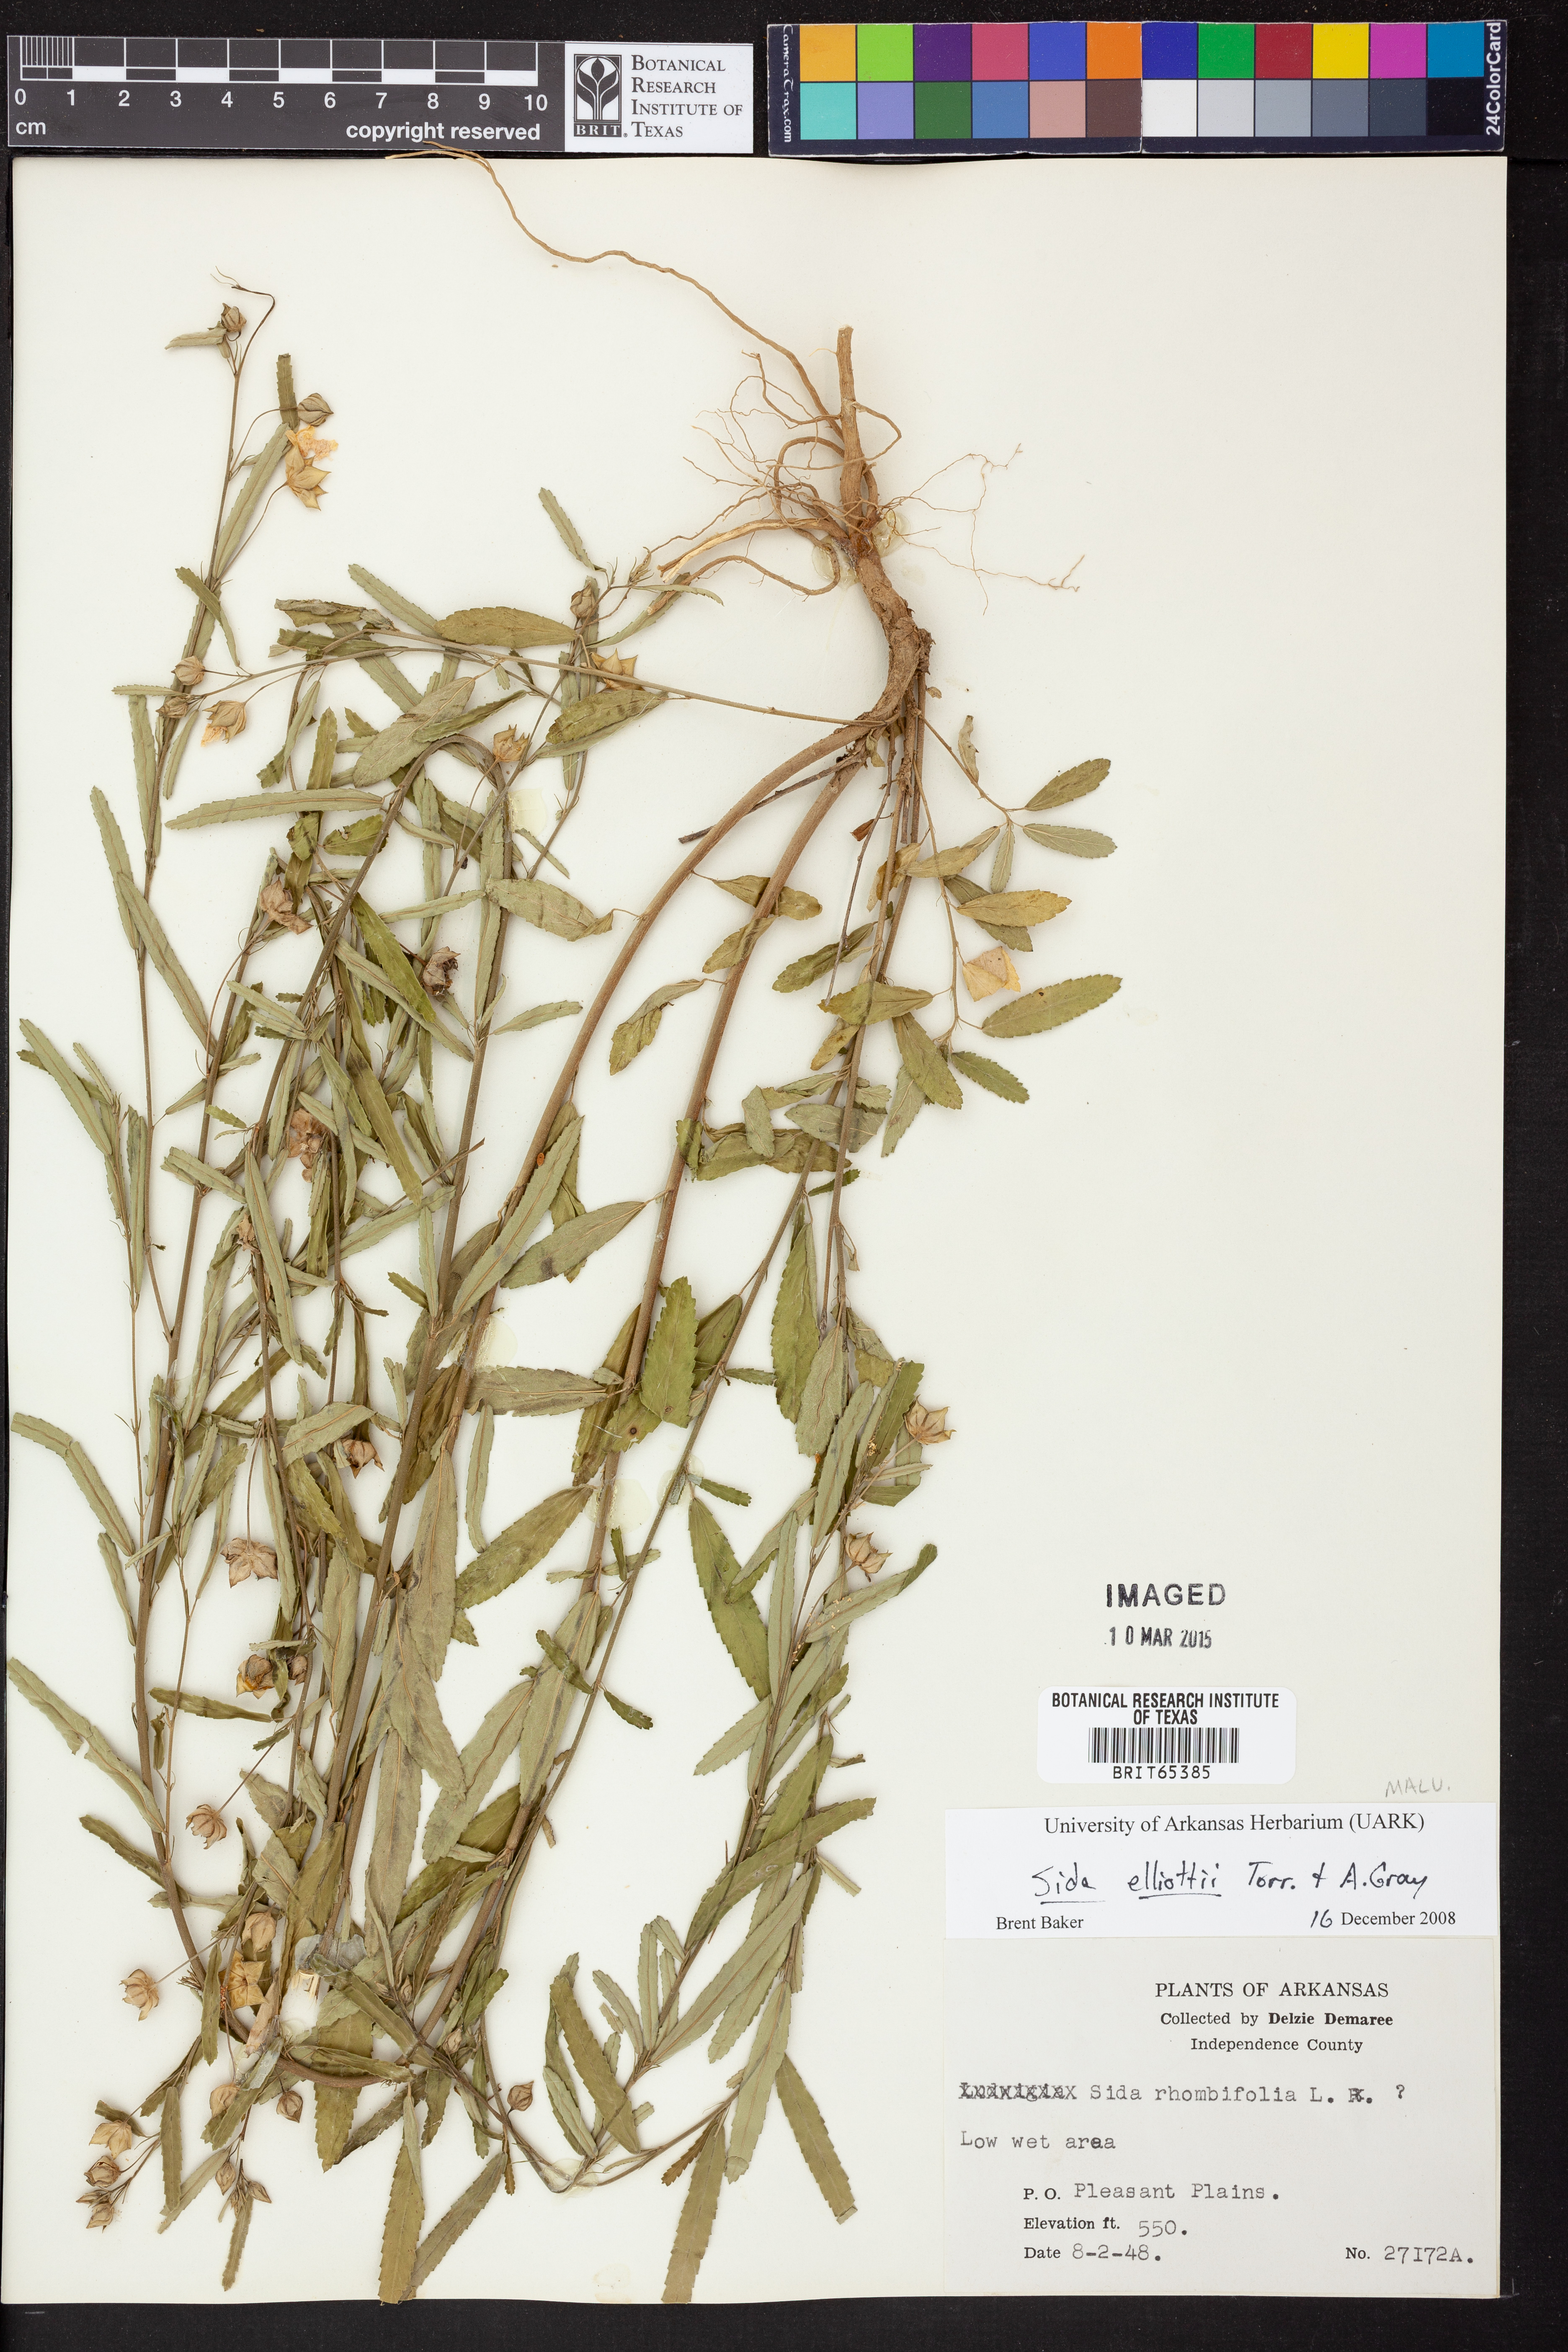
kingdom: Plantae
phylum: Tracheophyta
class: Magnoliopsida
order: Malvales
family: Malvaceae
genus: Sida
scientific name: Sida
